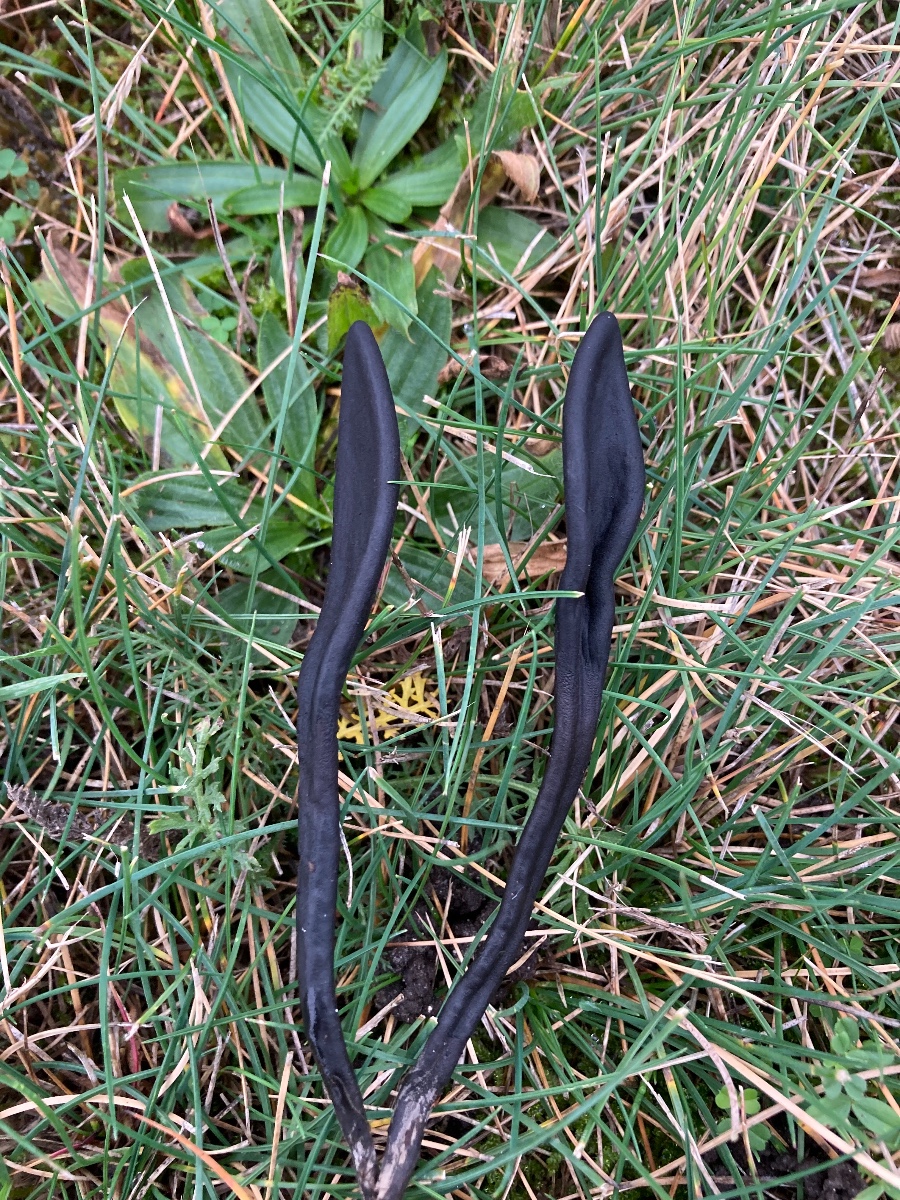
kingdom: Fungi
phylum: Ascomycota
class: Geoglossomycetes
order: Geoglossales
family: Geoglossaceae
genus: Geoglossum
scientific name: Geoglossum cookeianum
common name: bred jordtunge
